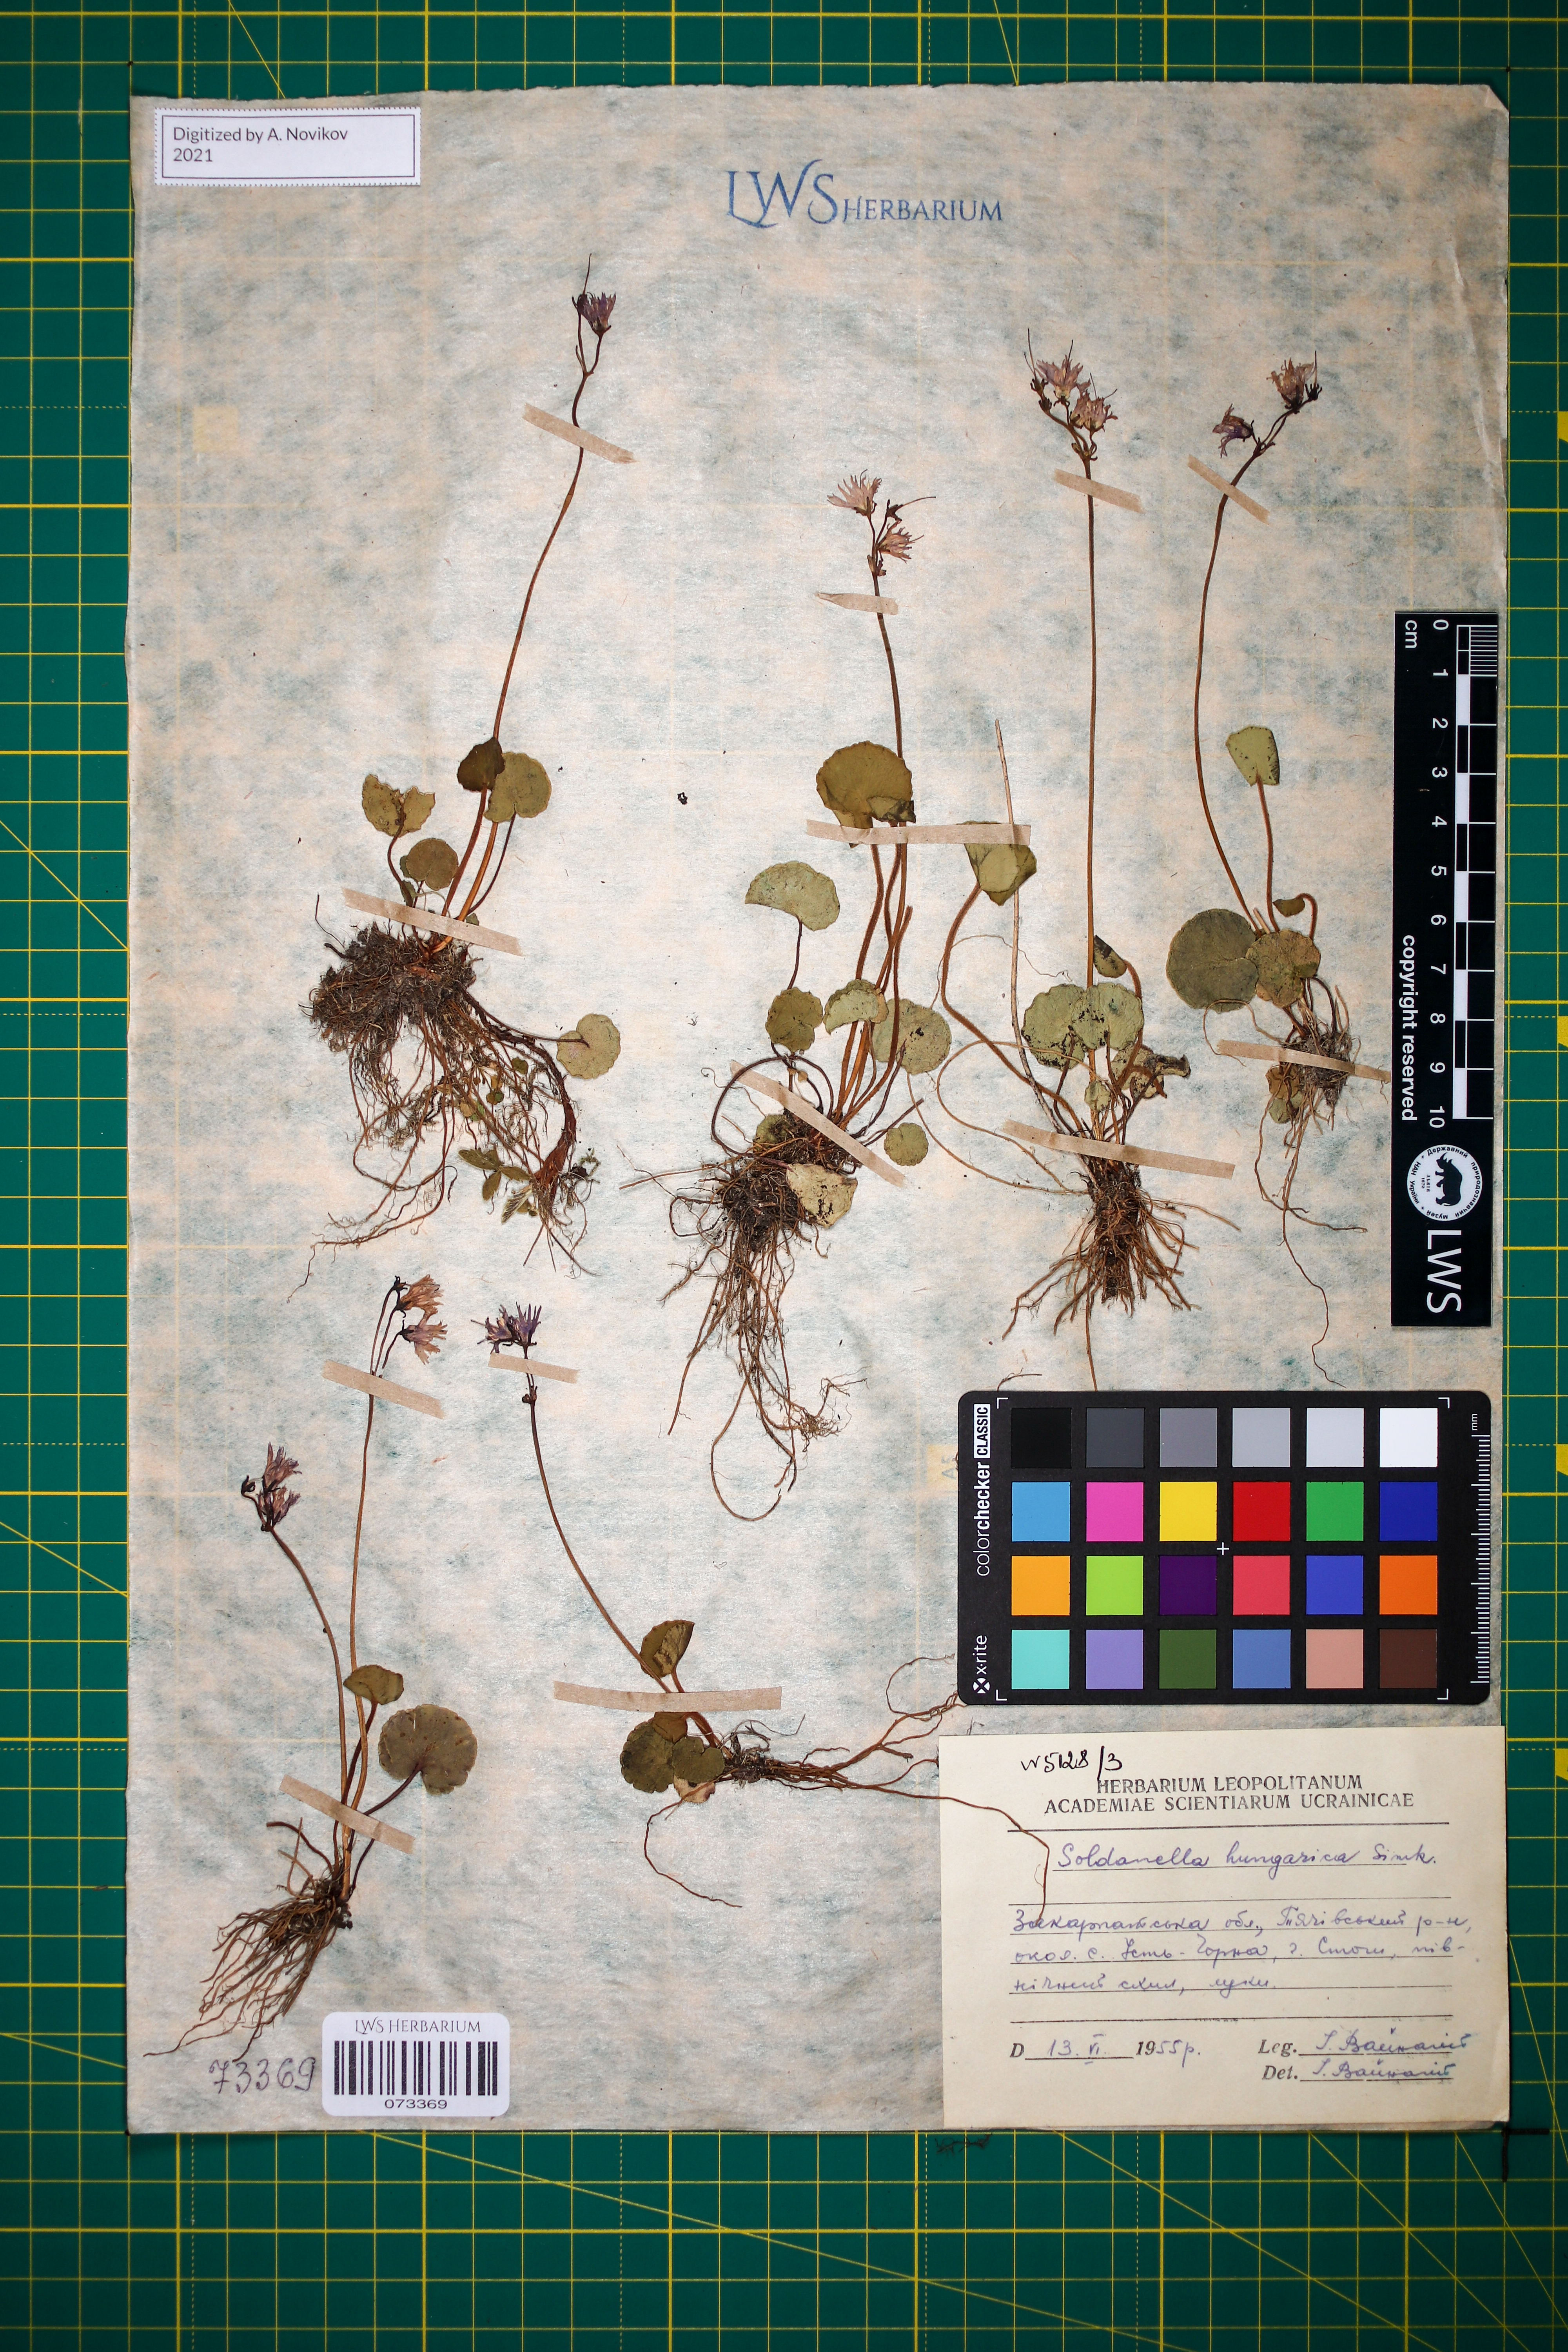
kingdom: Plantae
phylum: Tracheophyta
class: Magnoliopsida
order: Ericales
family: Primulaceae
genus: Soldanella
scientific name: Soldanella hungarica
